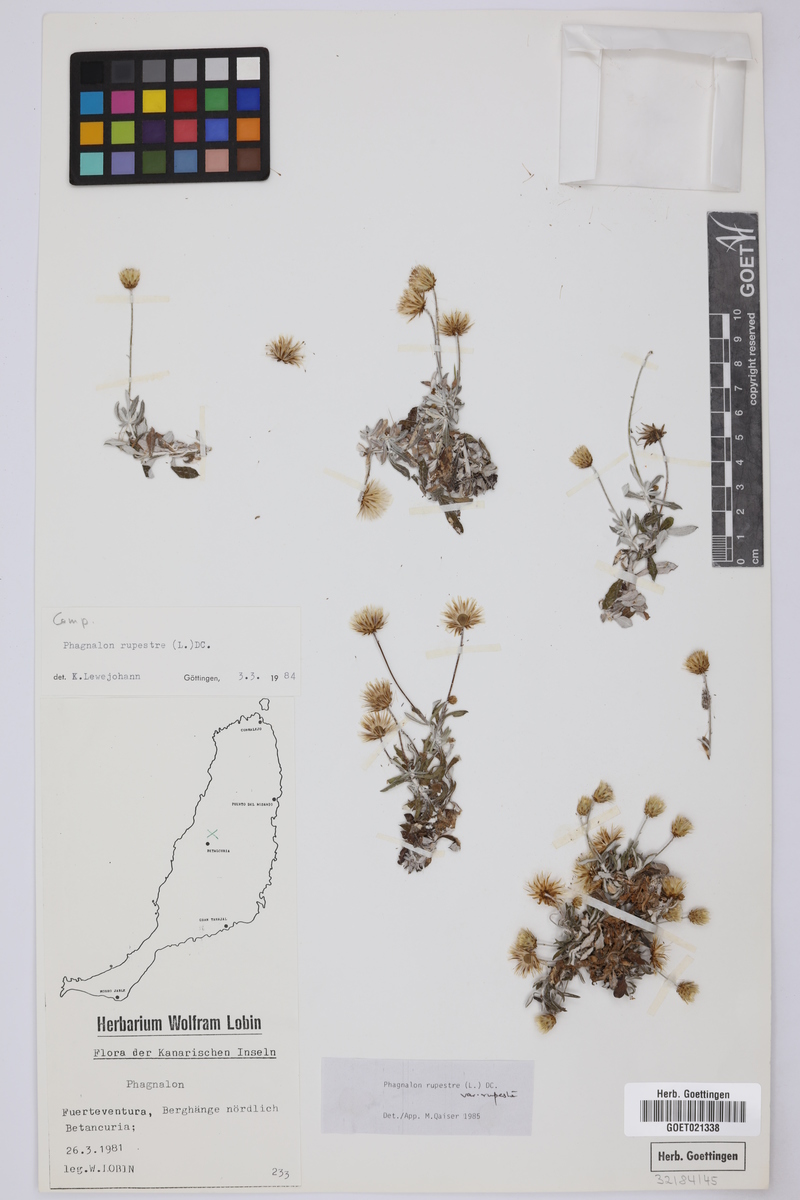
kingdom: Plantae
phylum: Tracheophyta
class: Magnoliopsida
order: Asterales
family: Asteraceae
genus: Phagnalon
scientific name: Phagnalon rupestre
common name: Rock phagnalon
